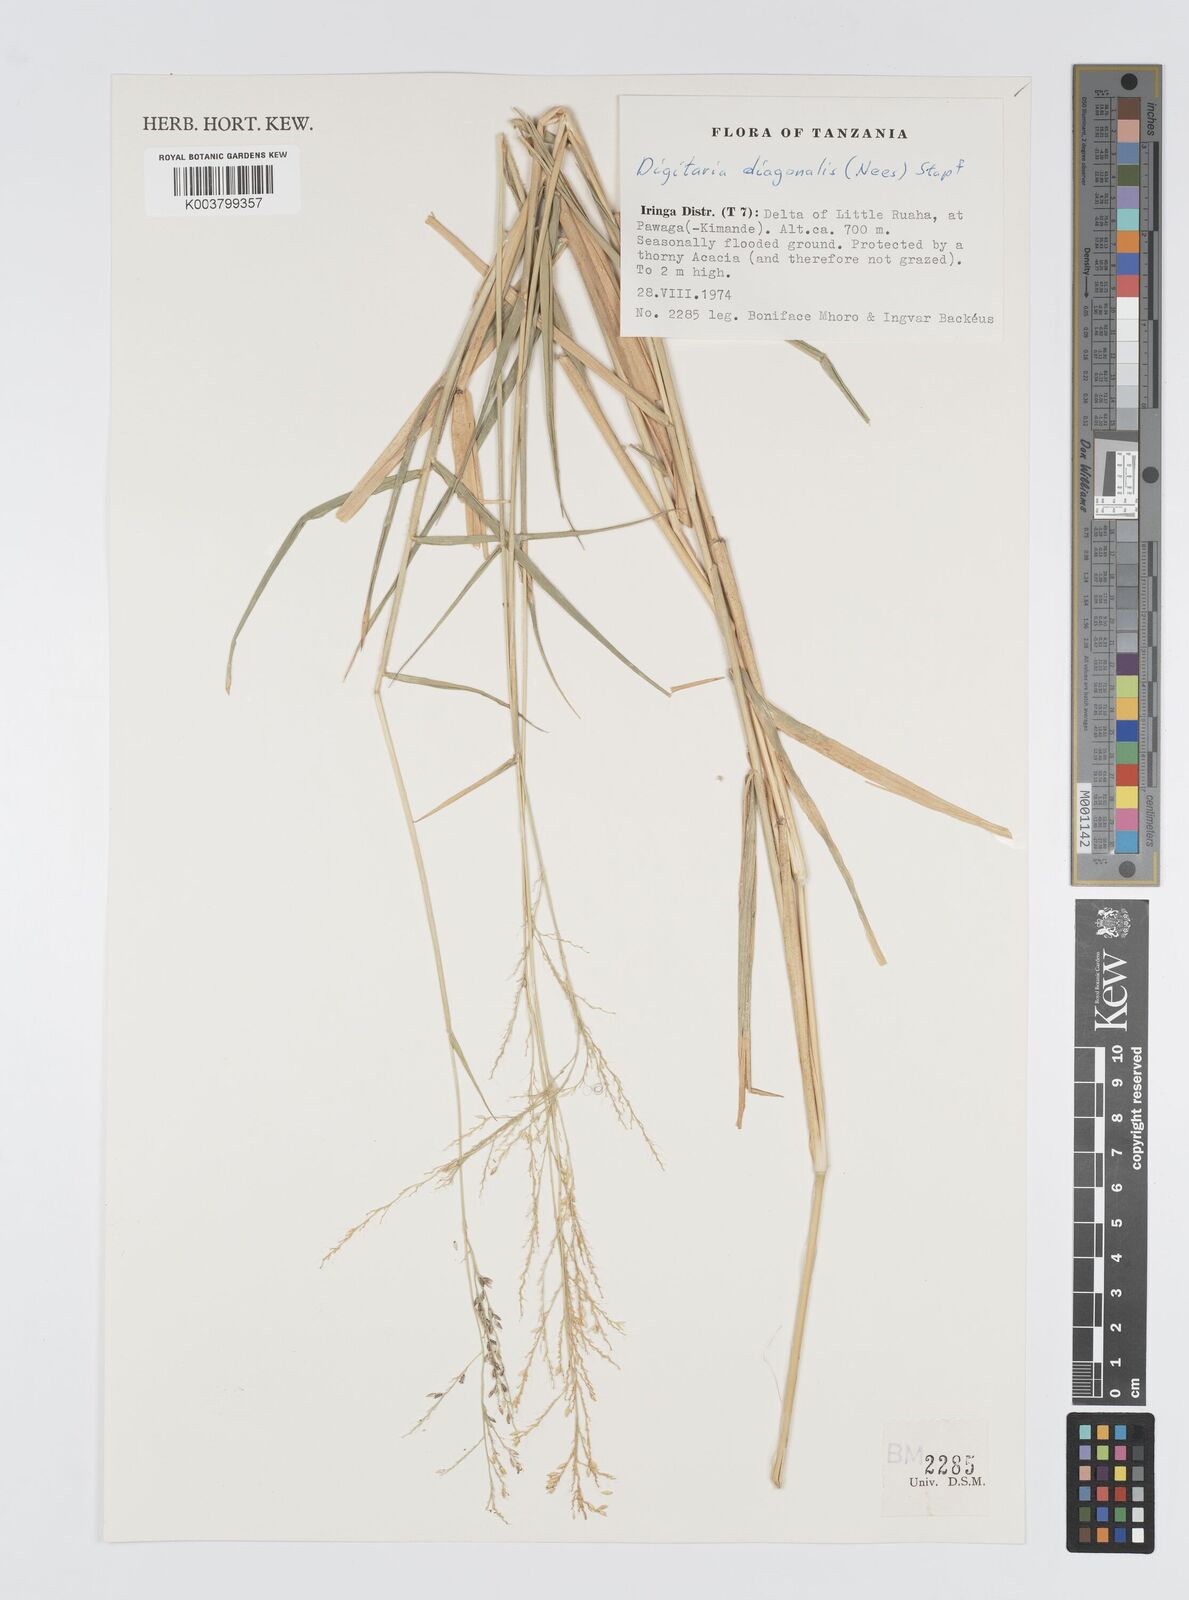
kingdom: Plantae
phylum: Tracheophyta
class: Liliopsida
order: Poales
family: Poaceae
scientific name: Poaceae
